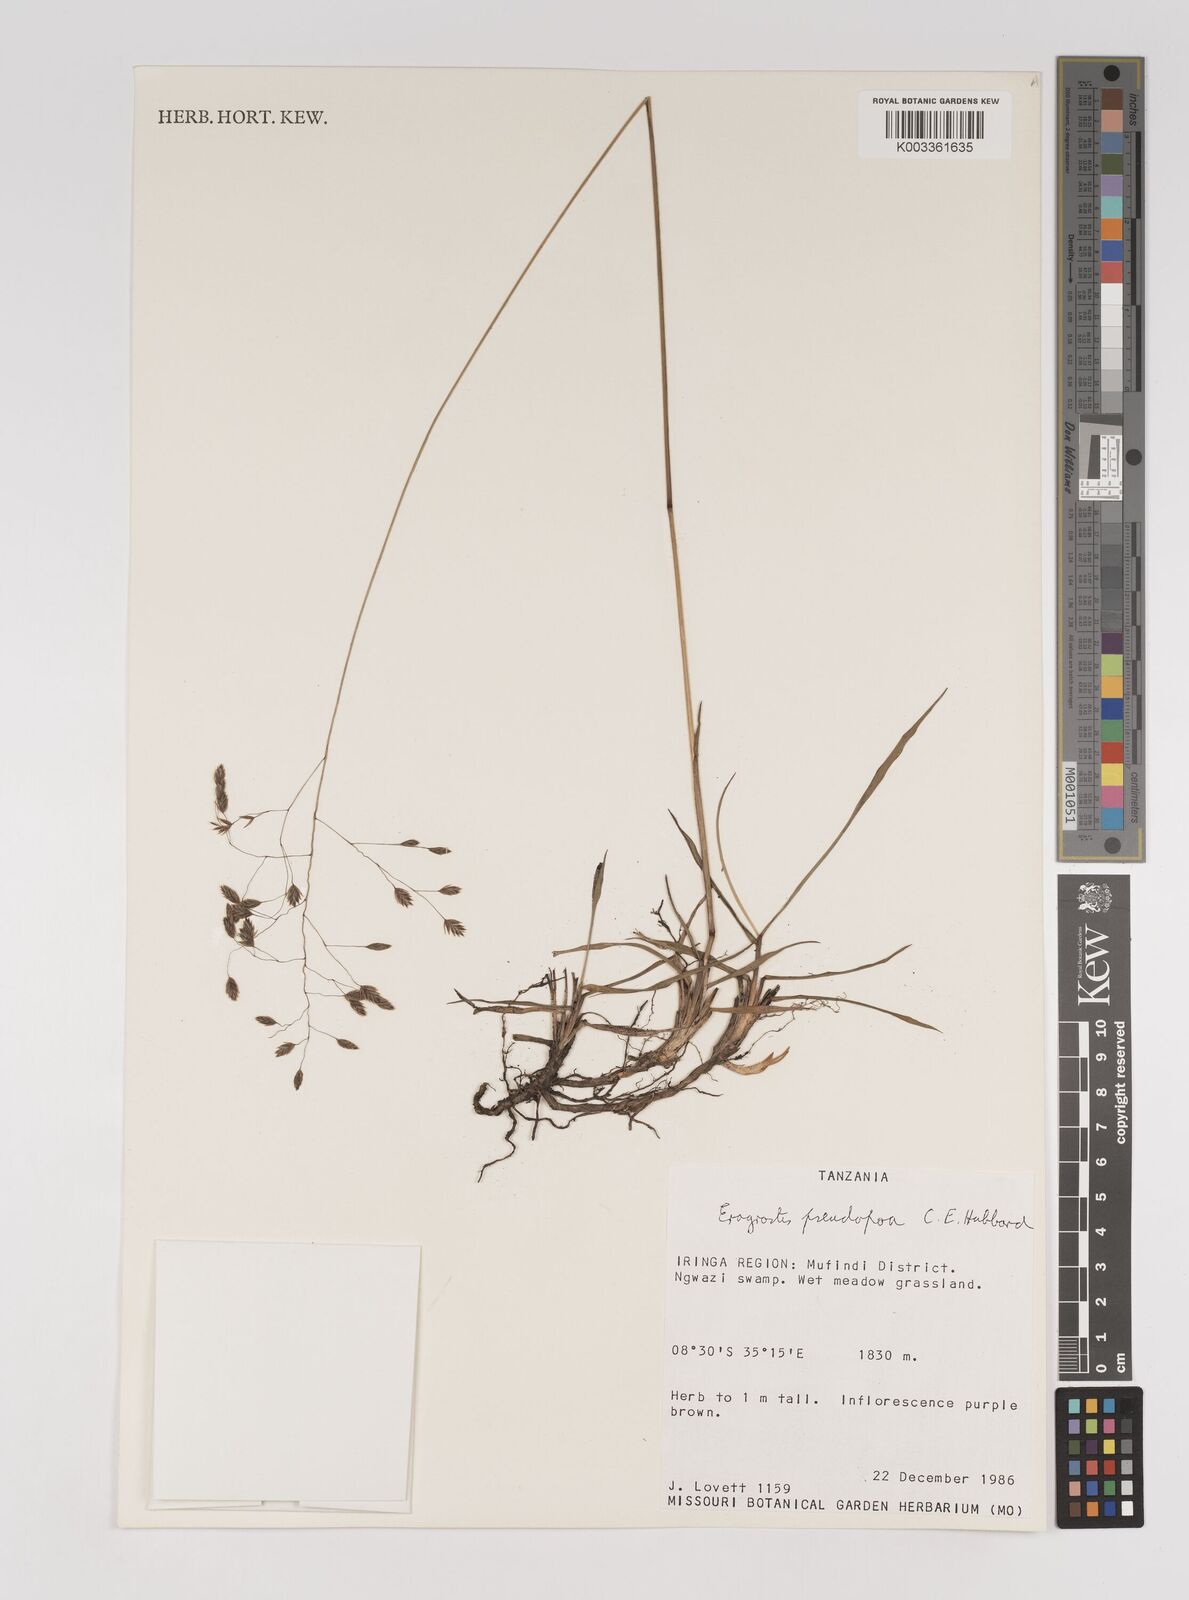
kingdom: Plantae
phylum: Tracheophyta
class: Liliopsida
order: Poales
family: Poaceae
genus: Eragrostis
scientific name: Eragrostis pseudopoa
